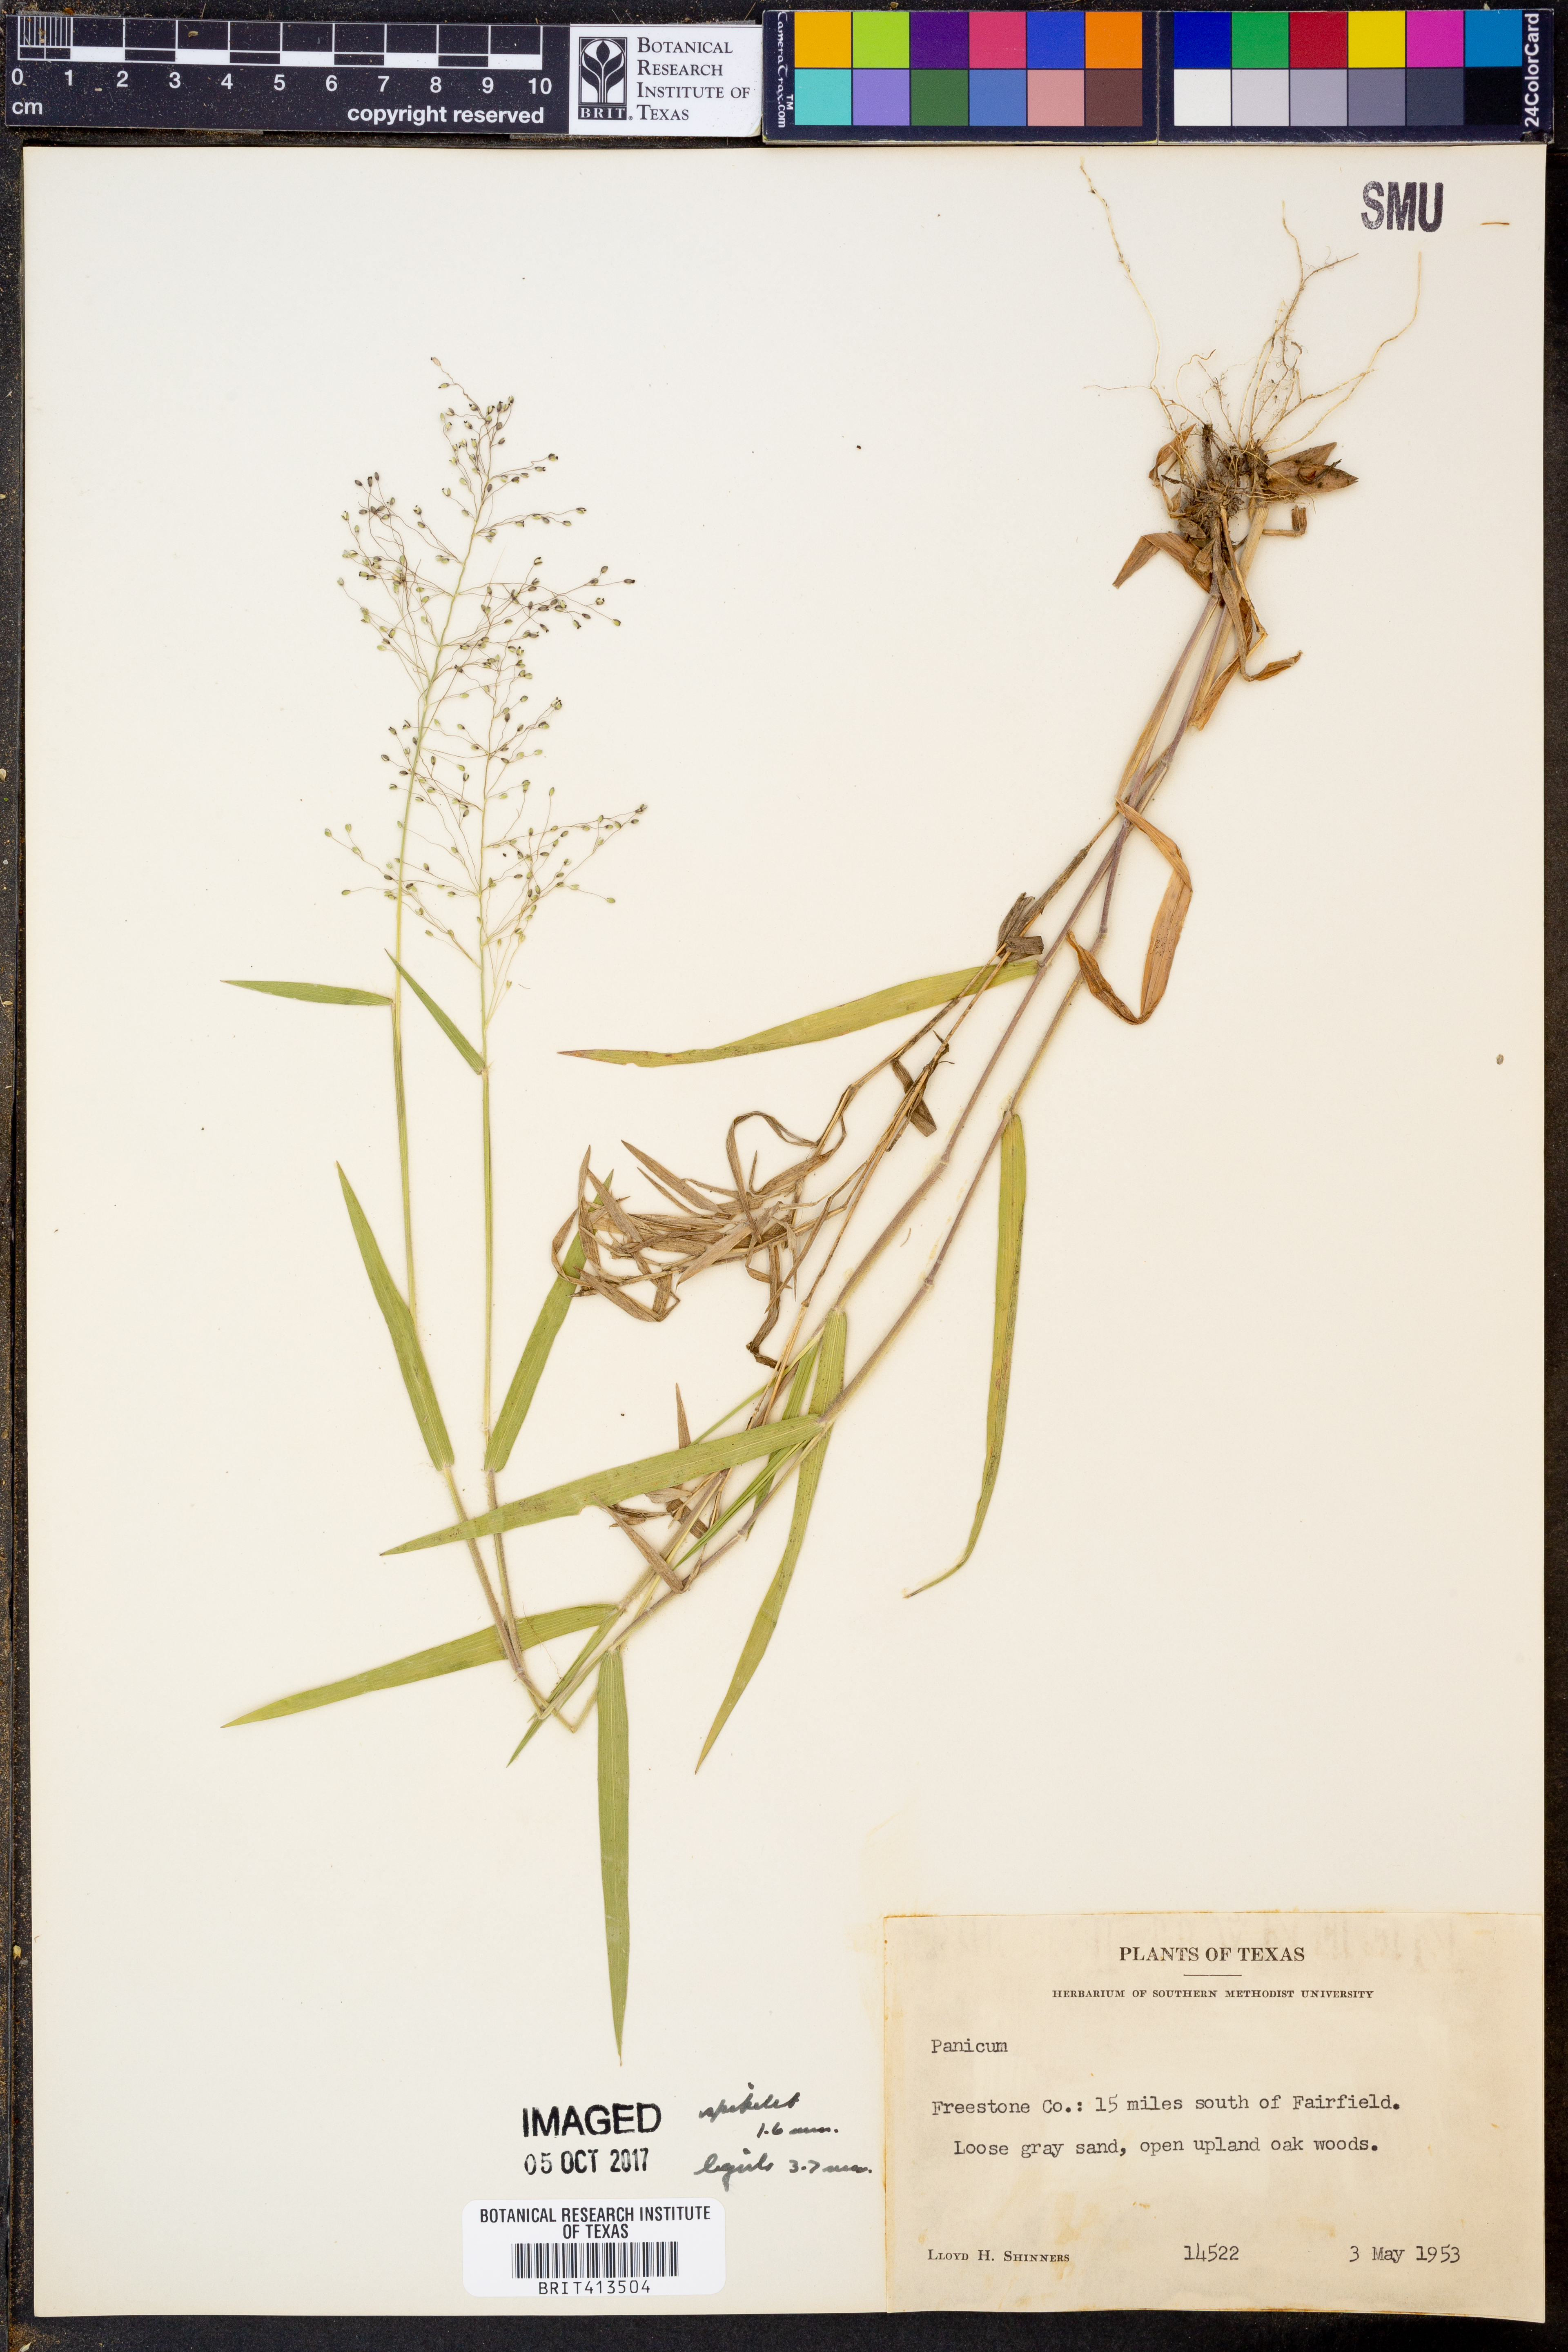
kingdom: Plantae
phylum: Tracheophyta
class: Liliopsida
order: Poales
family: Poaceae
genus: Panicum
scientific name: Panicum
